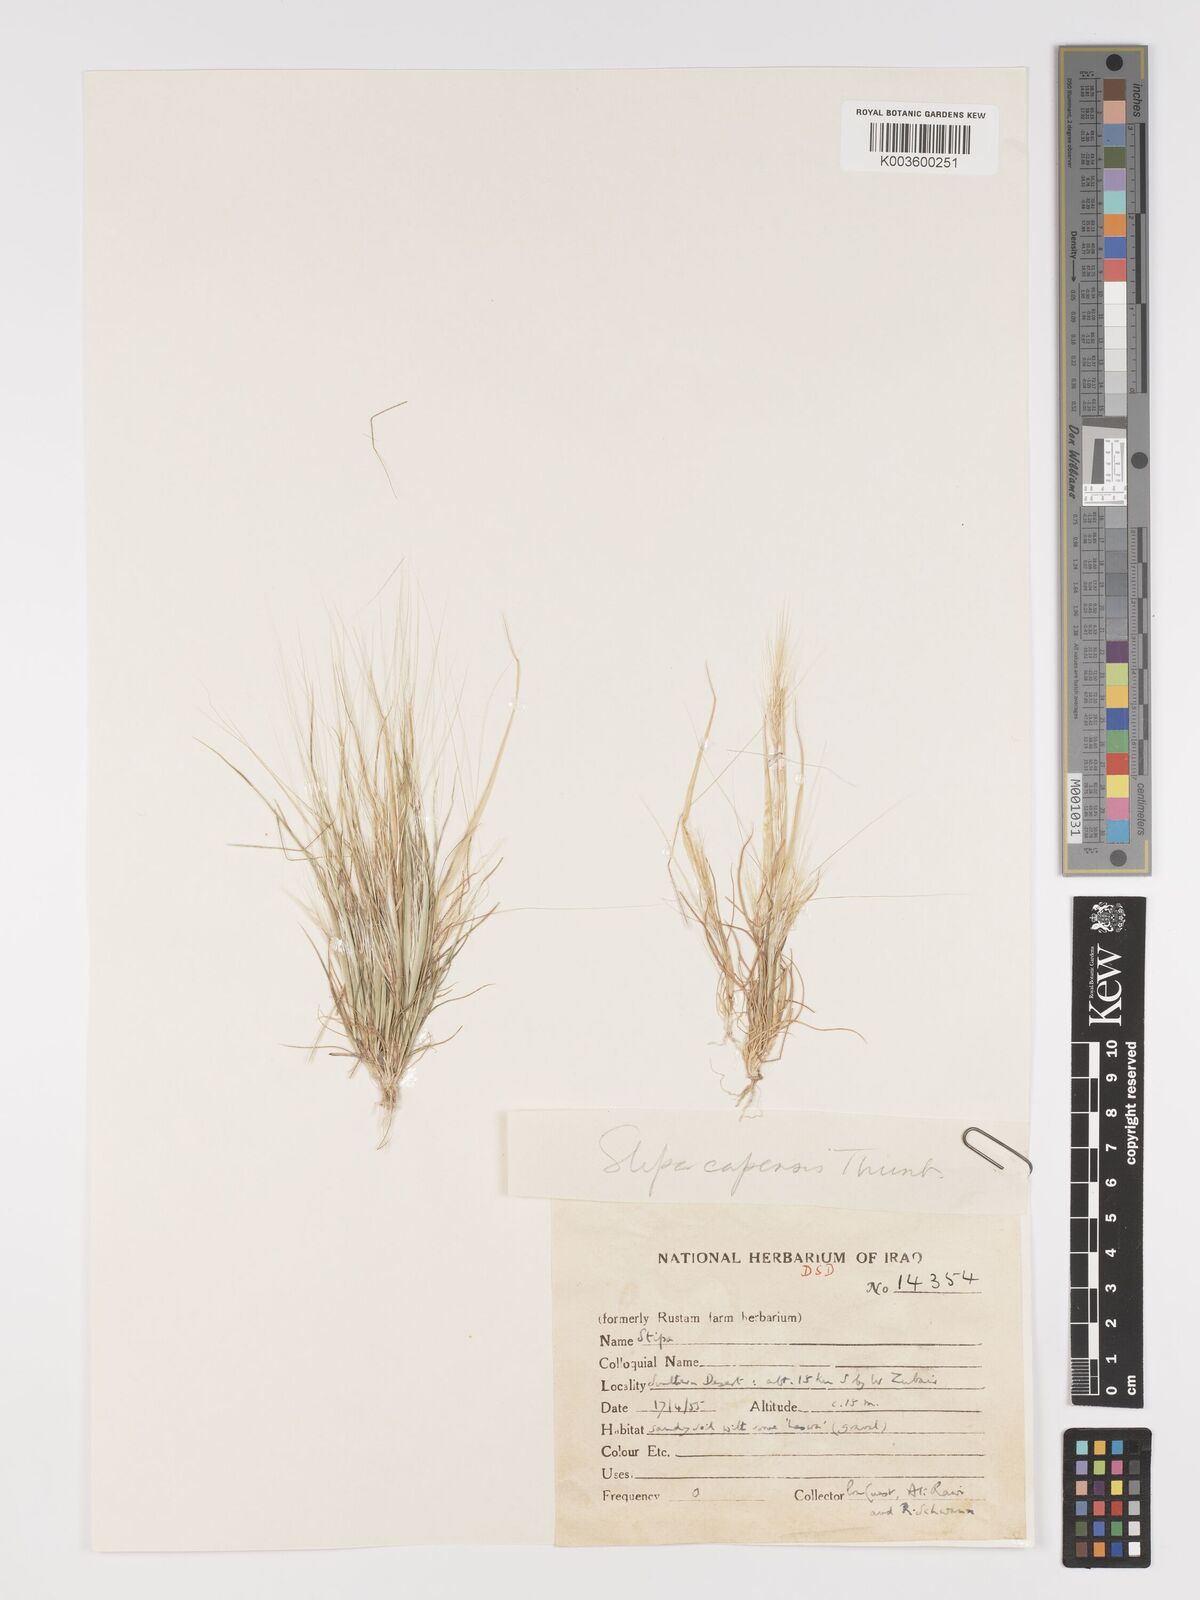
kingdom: Plantae
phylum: Tracheophyta
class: Liliopsida
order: Poales
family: Poaceae
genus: Stipellula
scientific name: Stipellula capensis
